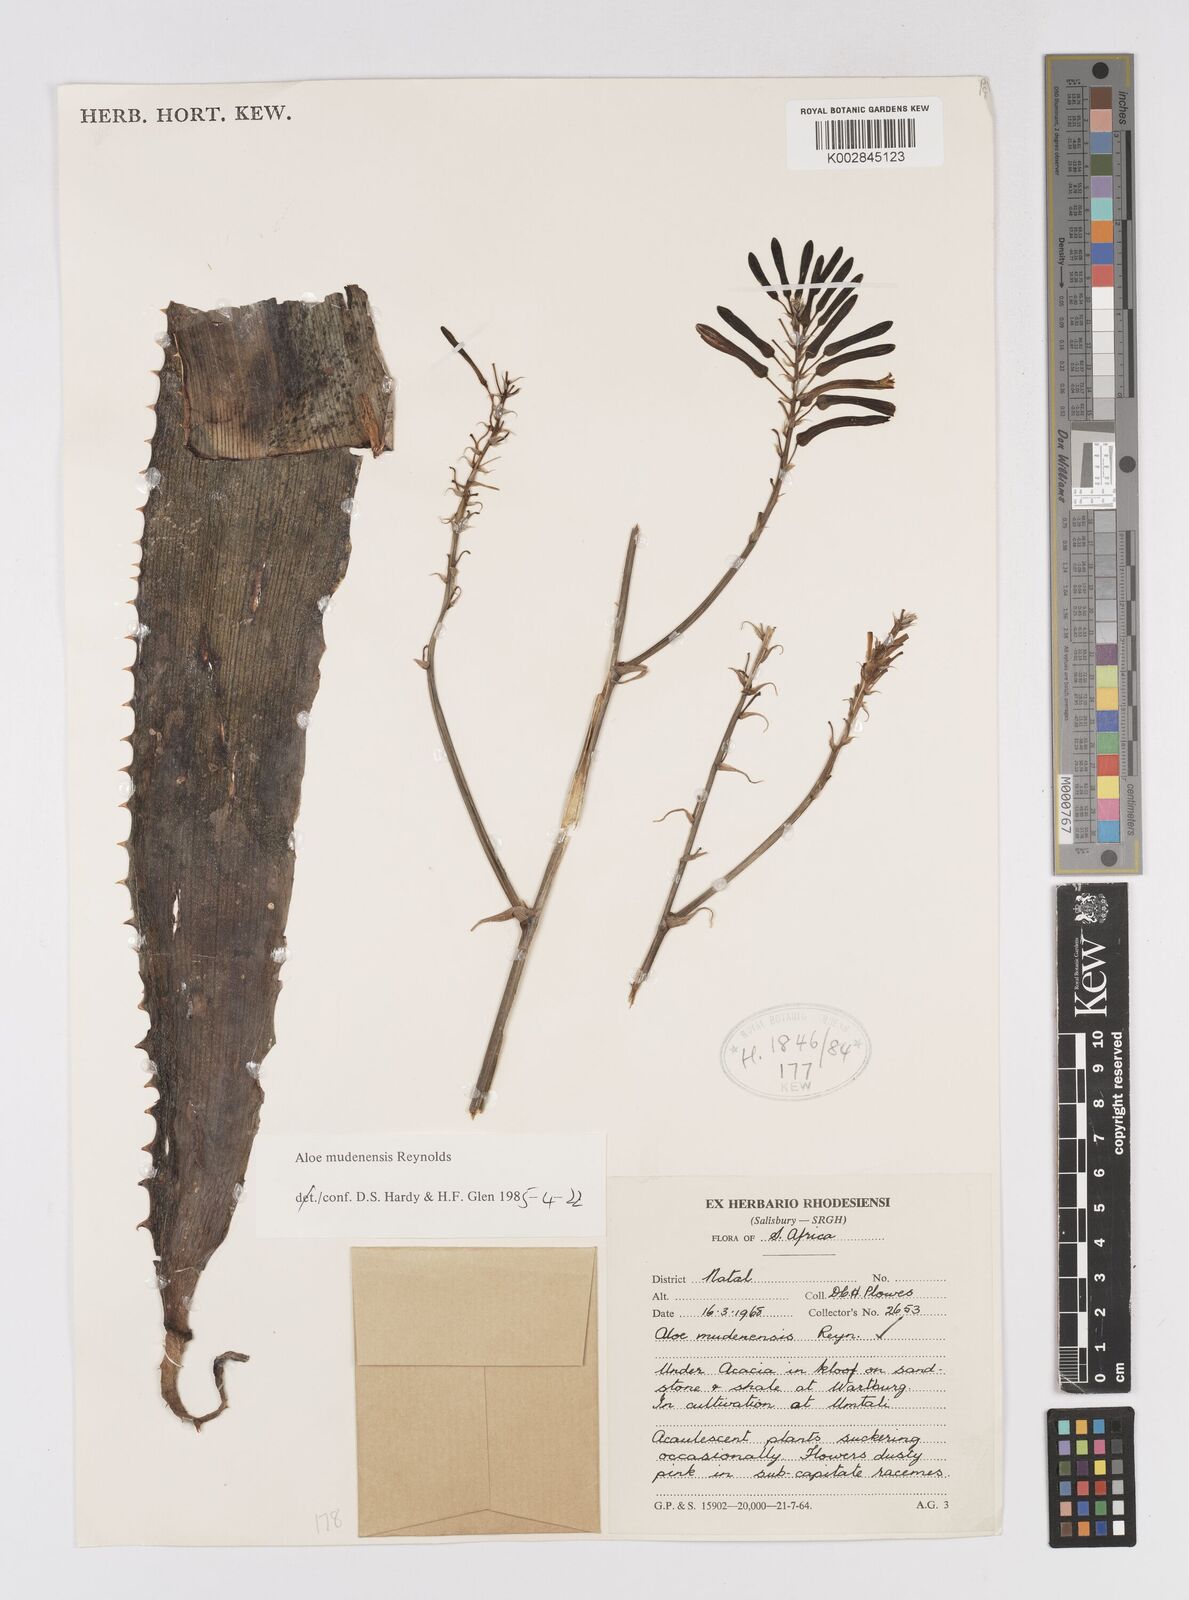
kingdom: Plantae
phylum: Tracheophyta
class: Liliopsida
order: Asparagales
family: Asphodelaceae
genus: Aloe
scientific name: Aloe mudenensis
